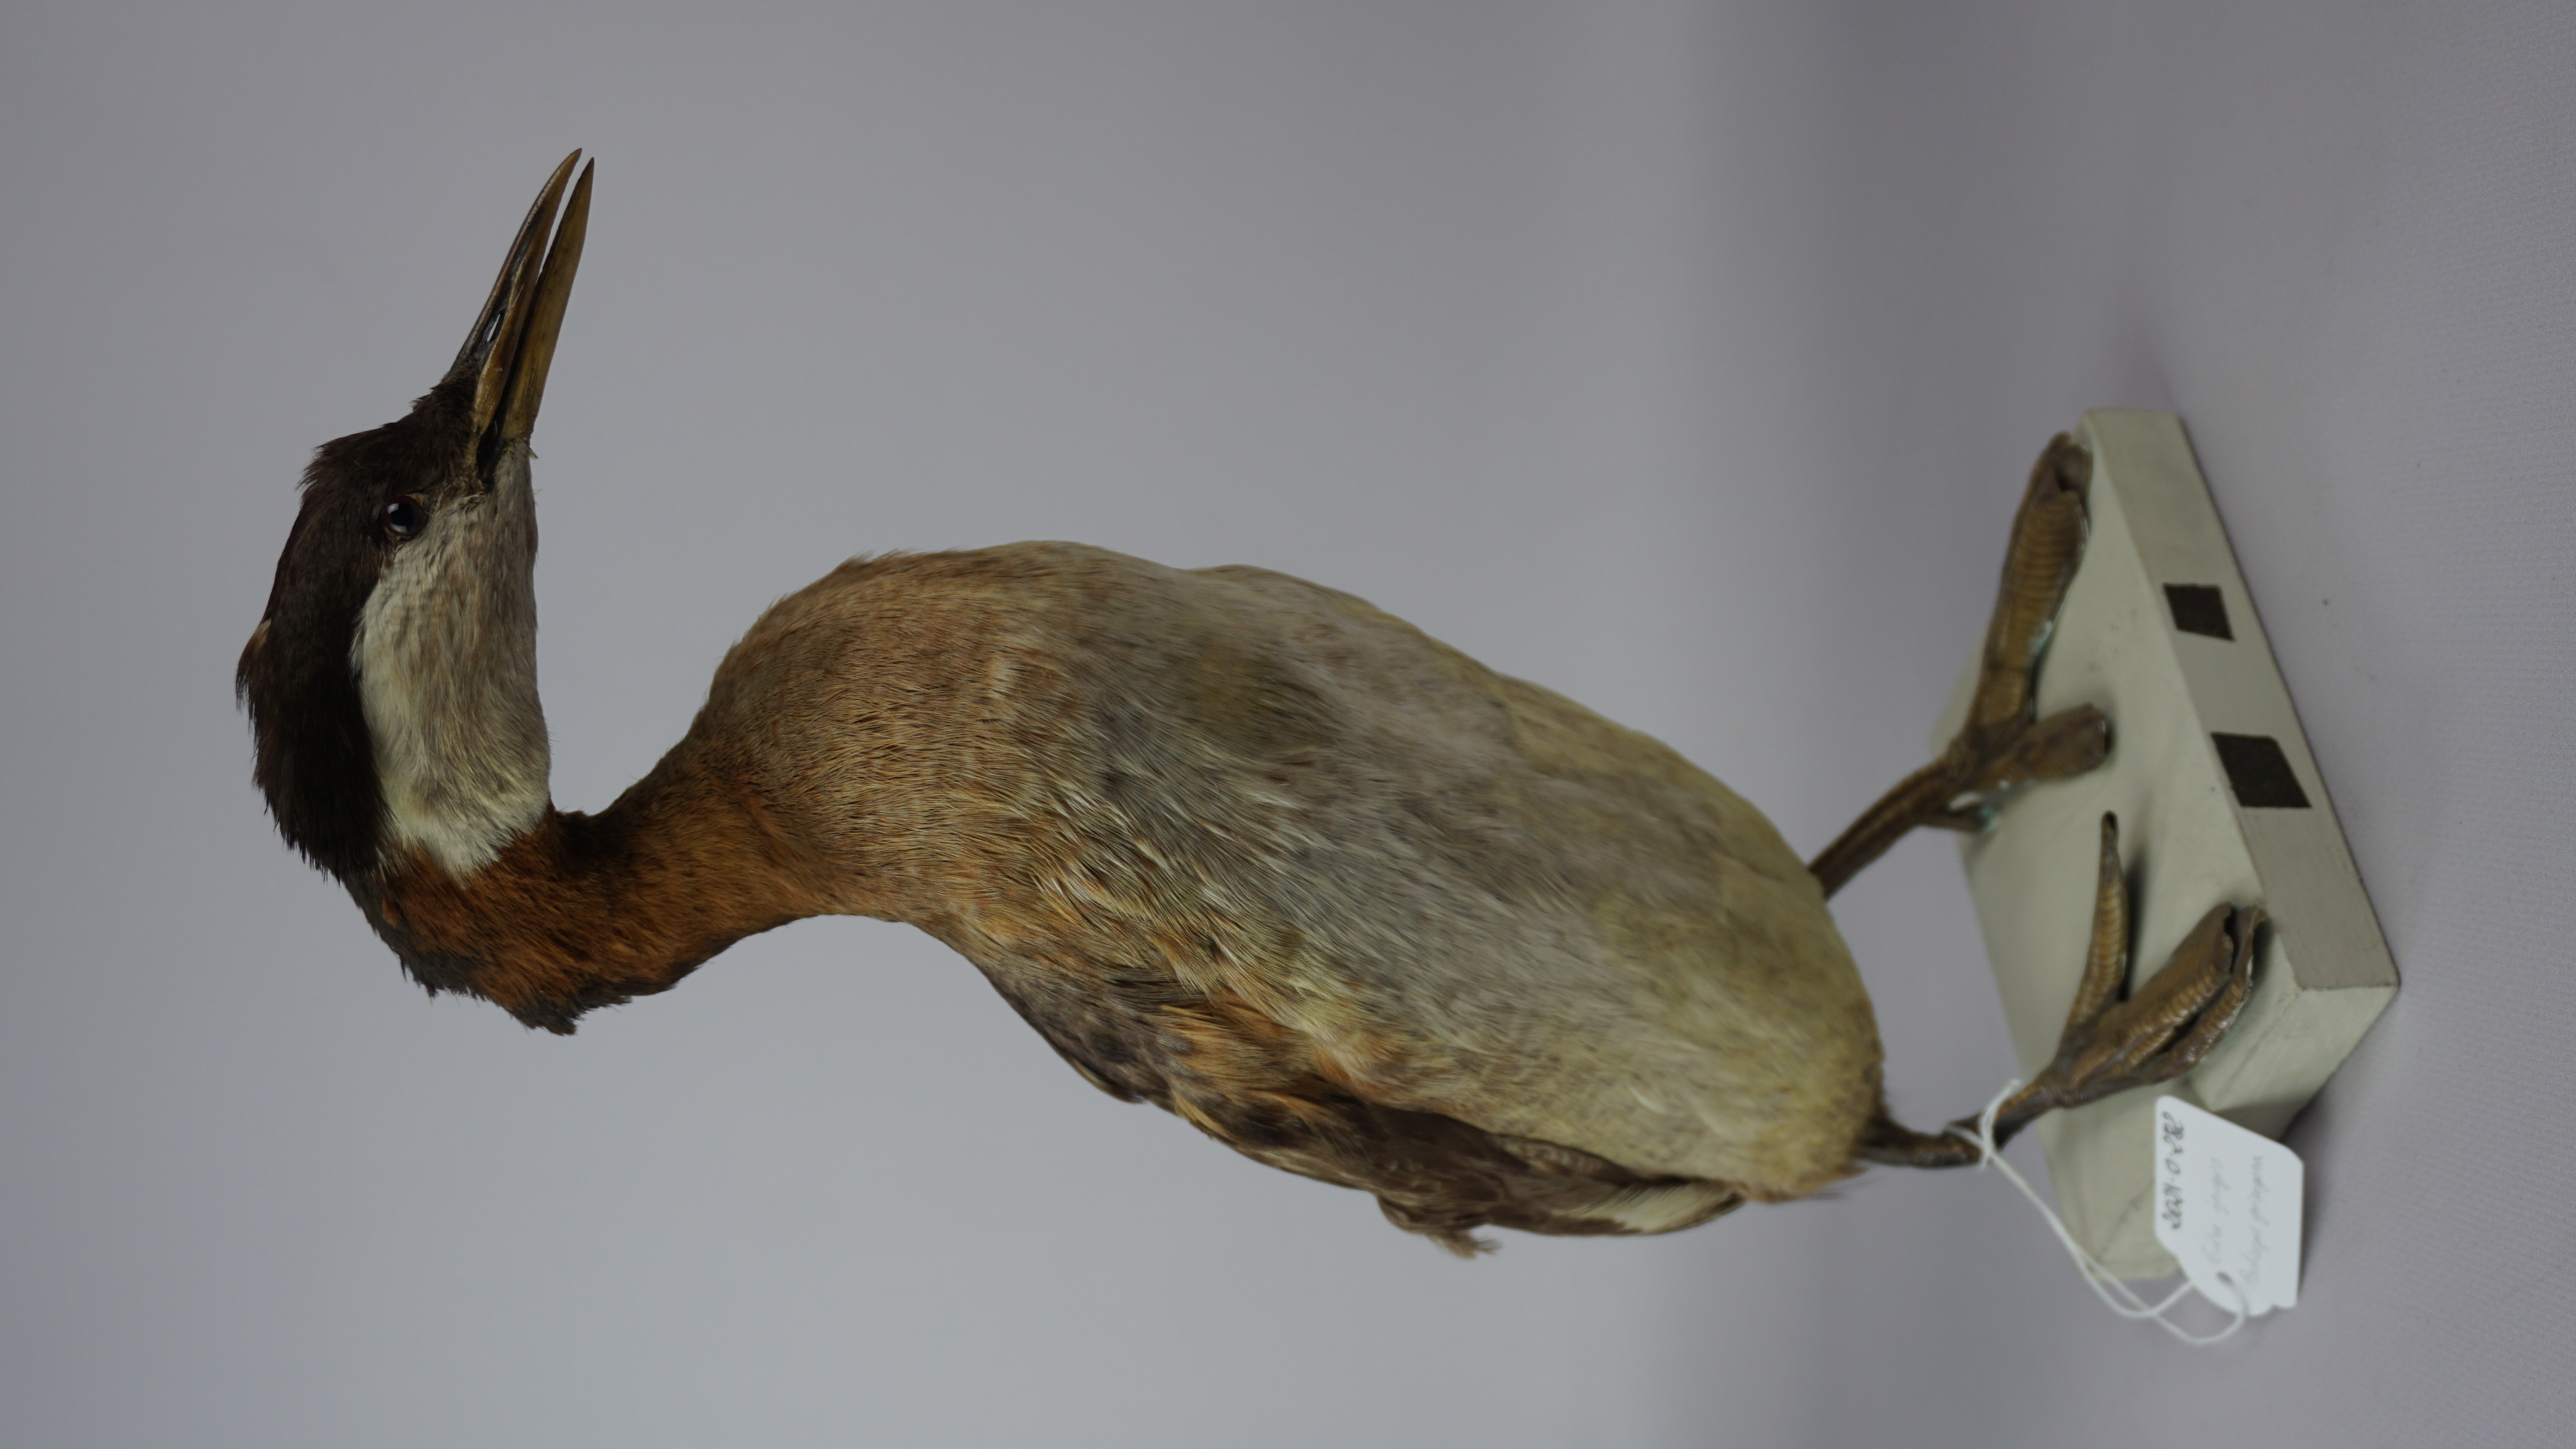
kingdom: Animalia
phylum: Chordata
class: Aves
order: Podicipediformes
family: Podicipedidae
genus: Podiceps
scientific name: Podiceps grisegena
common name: Red-necked grebe
